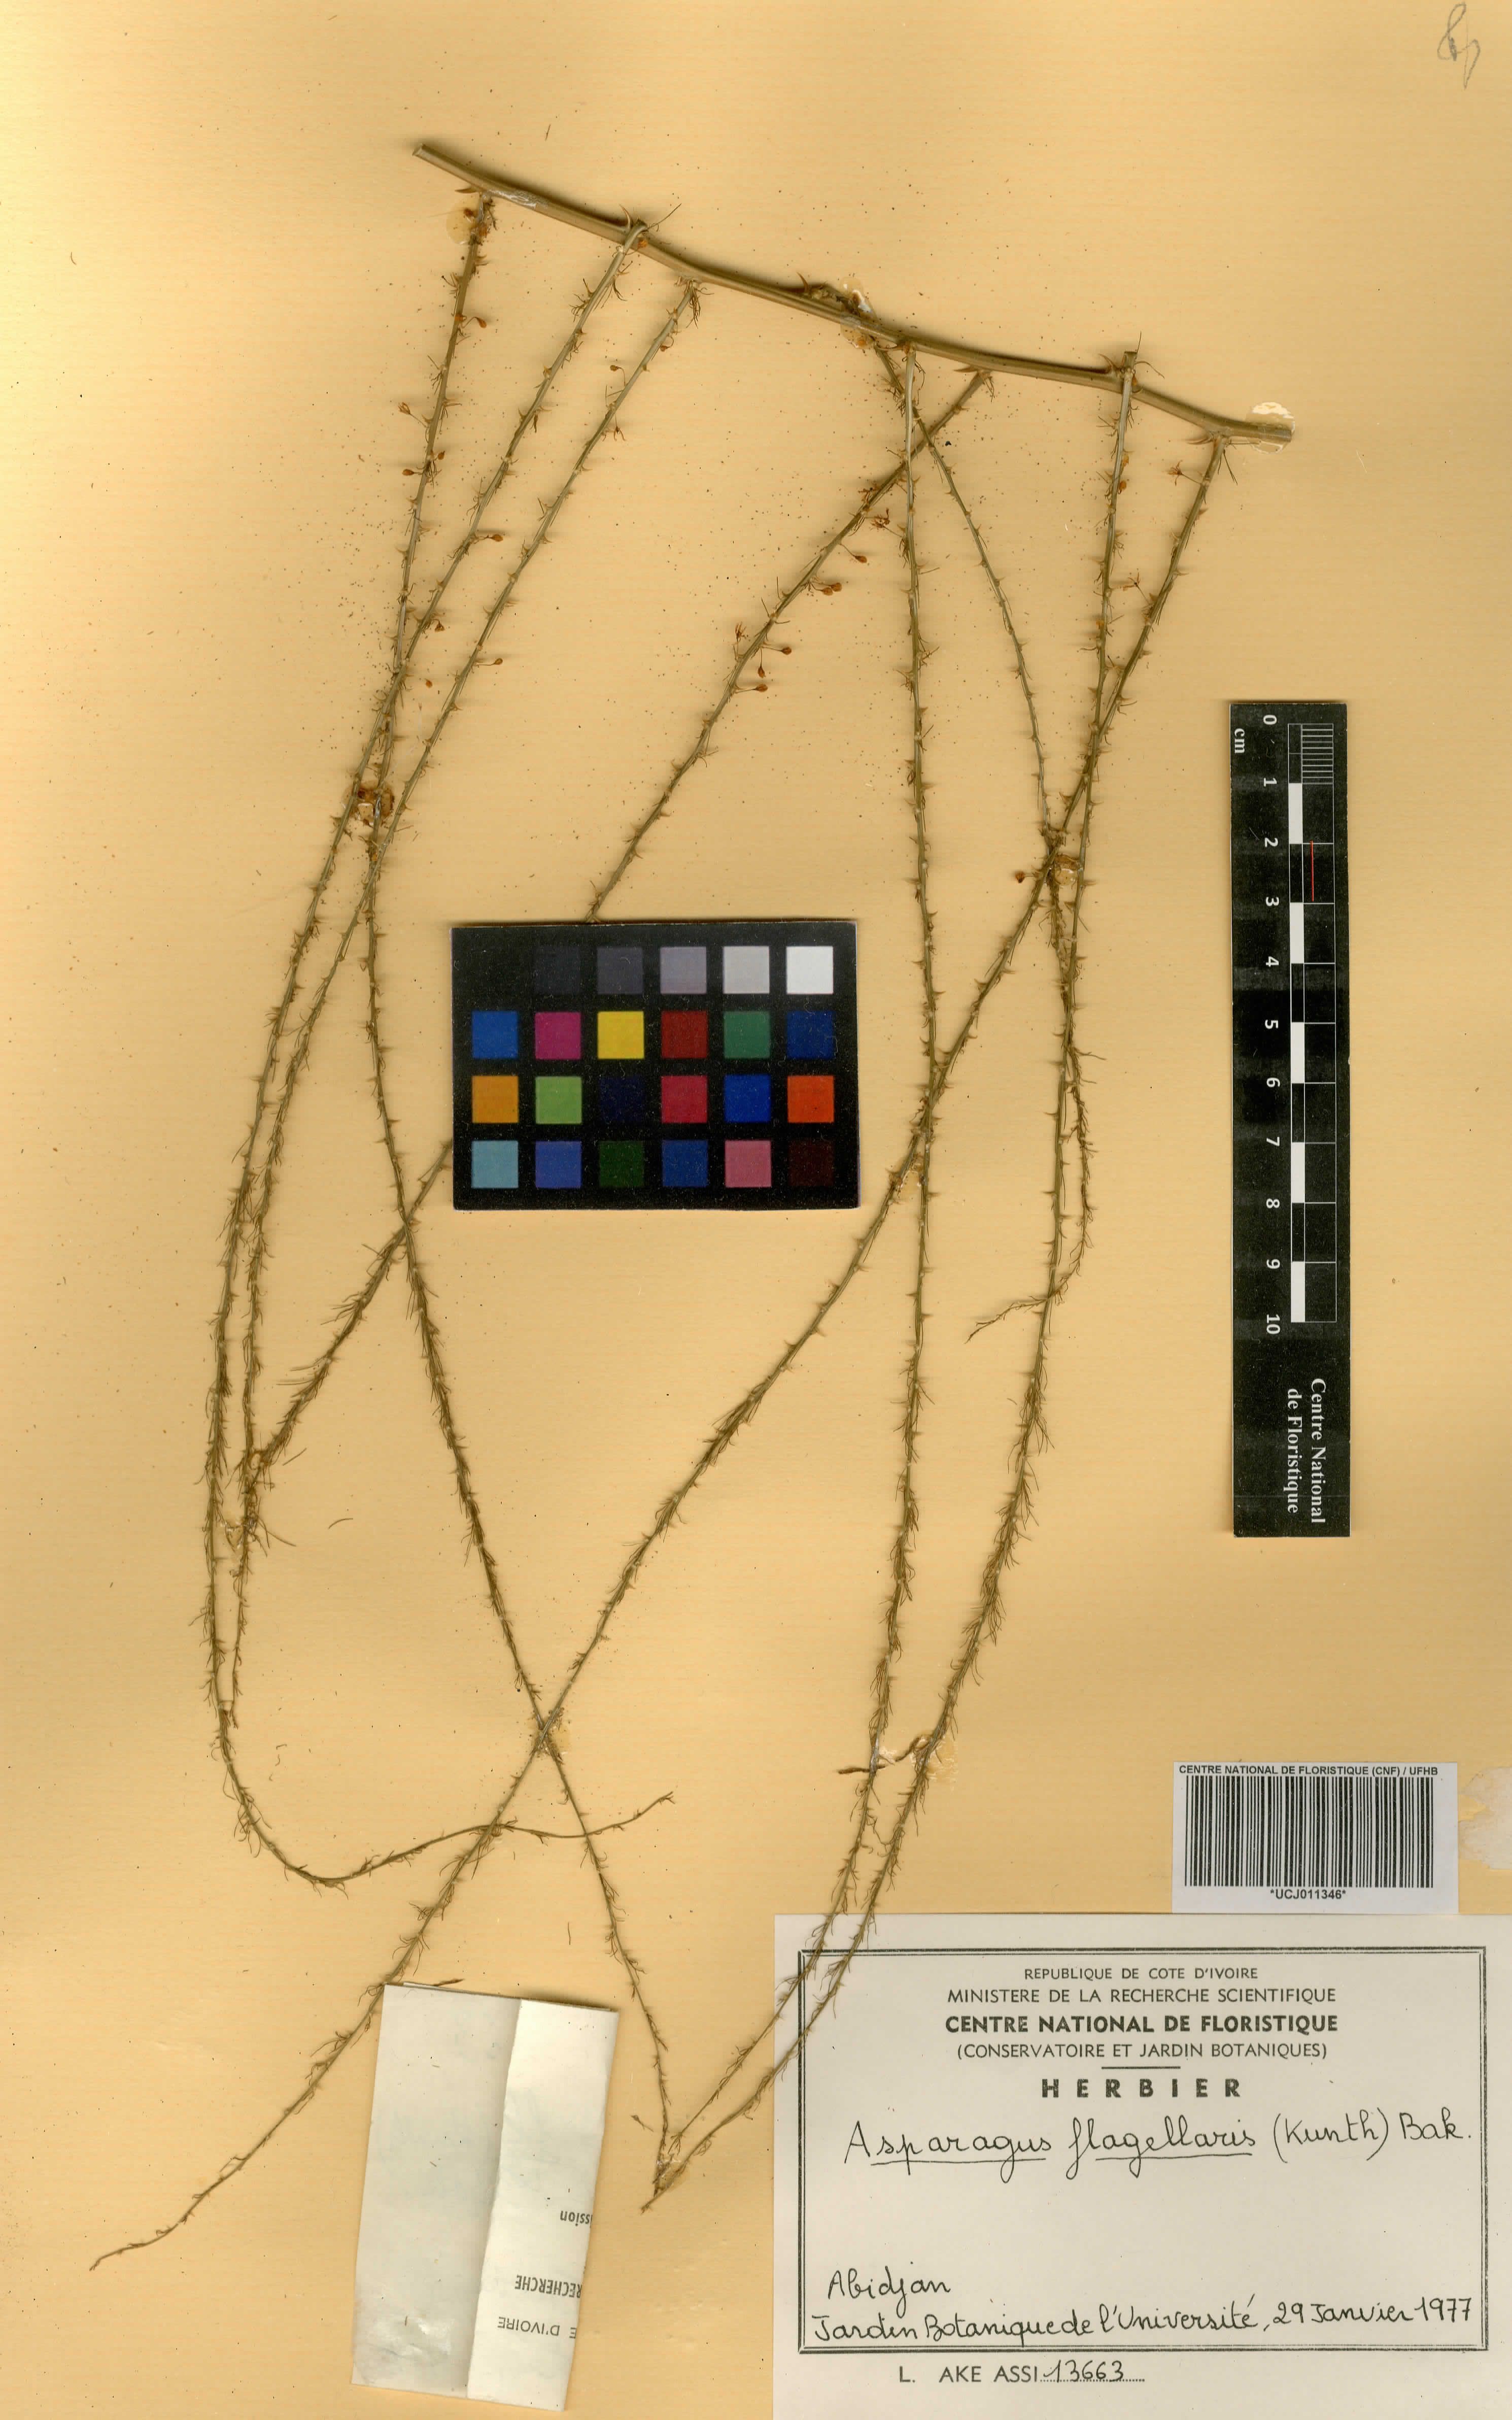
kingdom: Plantae
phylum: Tracheophyta
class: Liliopsida
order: Asparagales
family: Asparagaceae
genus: Asparagus
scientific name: Asparagus flagellaris
